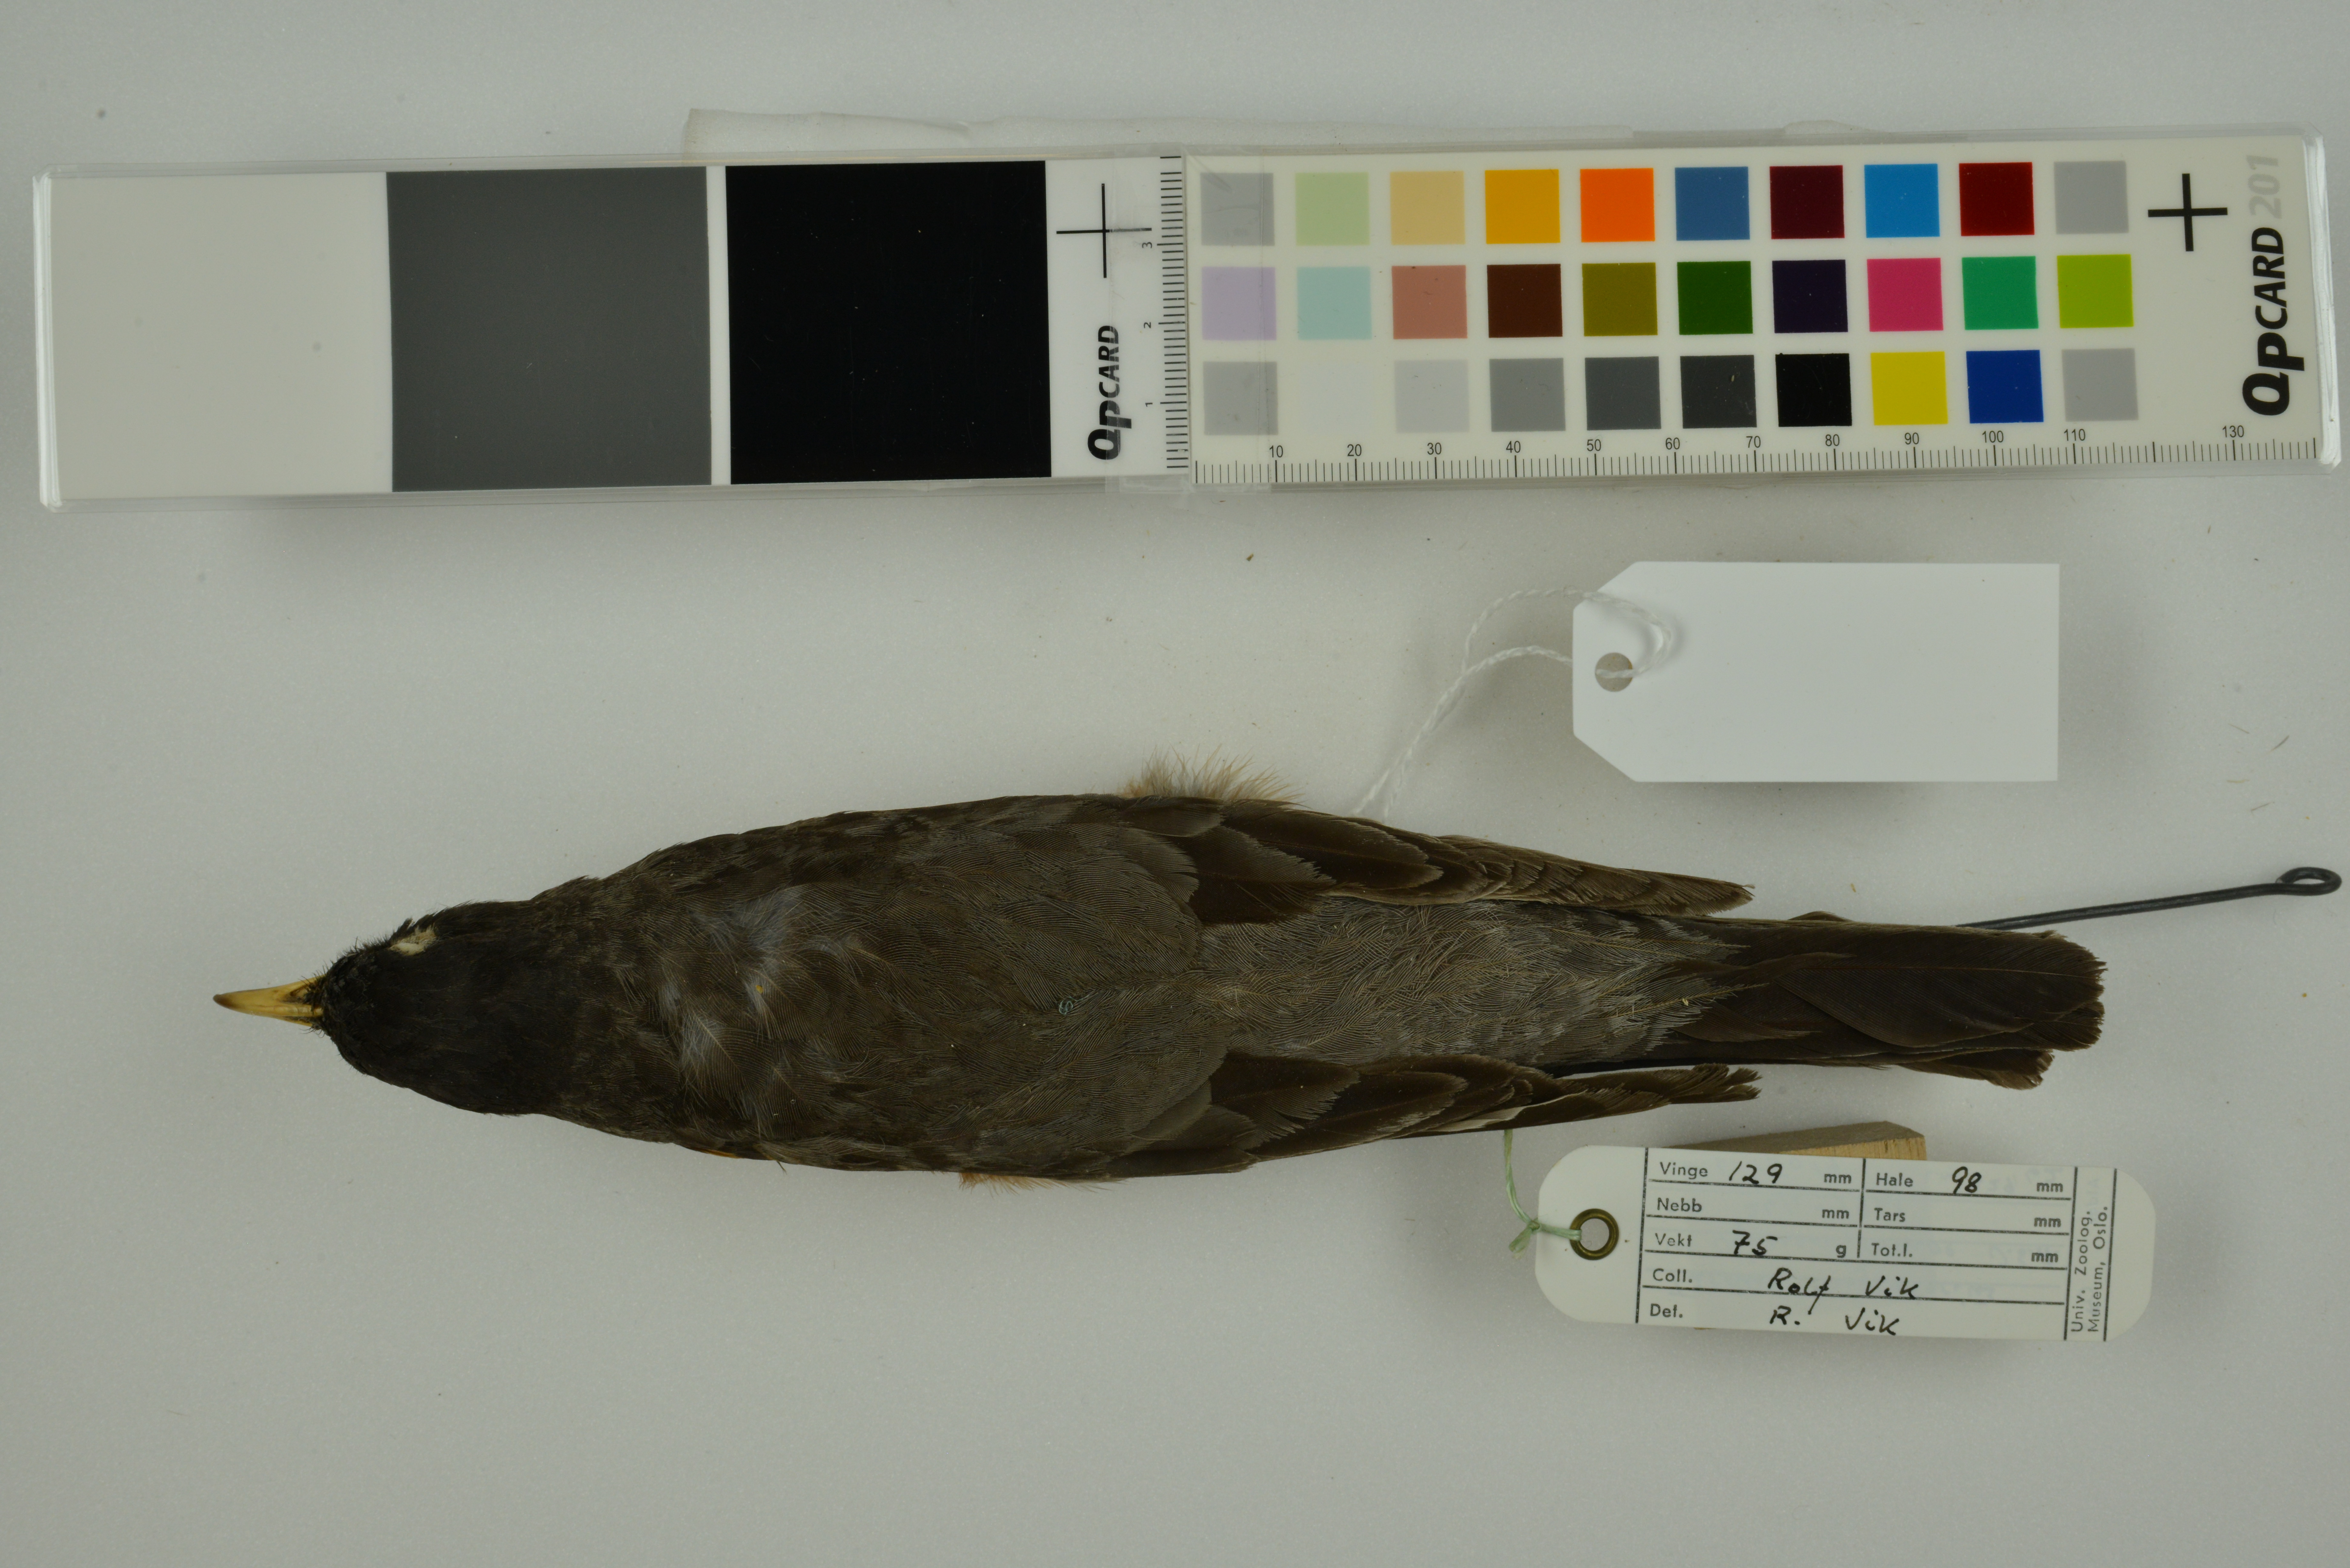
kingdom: Animalia
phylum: Chordata
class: Aves
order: Passeriformes
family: Turdidae
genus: Turdus
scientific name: Turdus migratorius
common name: American robin
